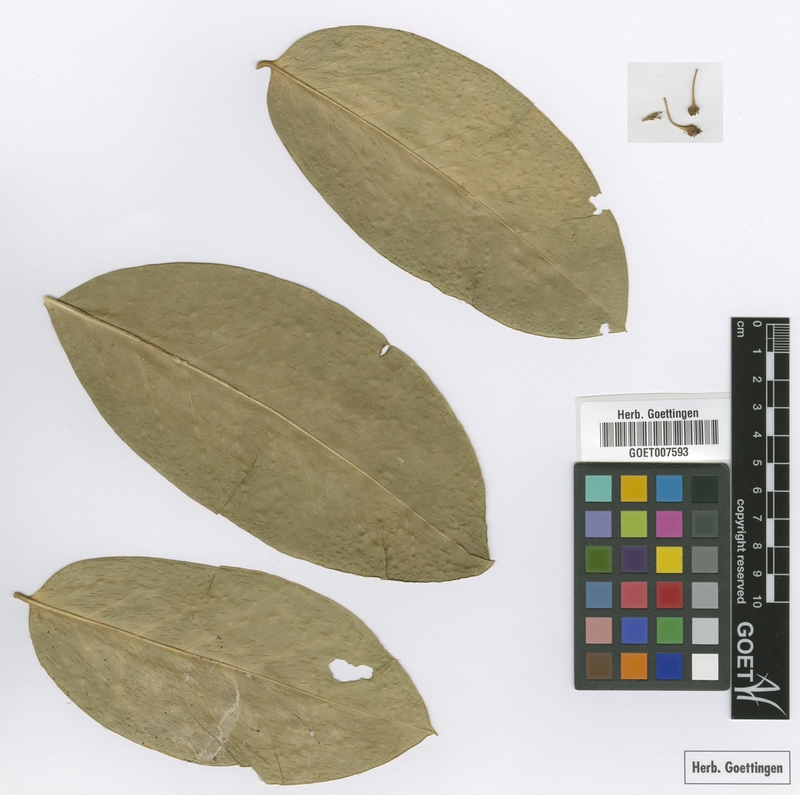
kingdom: Plantae
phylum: Tracheophyta
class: Magnoliopsida
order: Malpighiales
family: Malpighiaceae
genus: Malpighia
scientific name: Malpighia fucata
